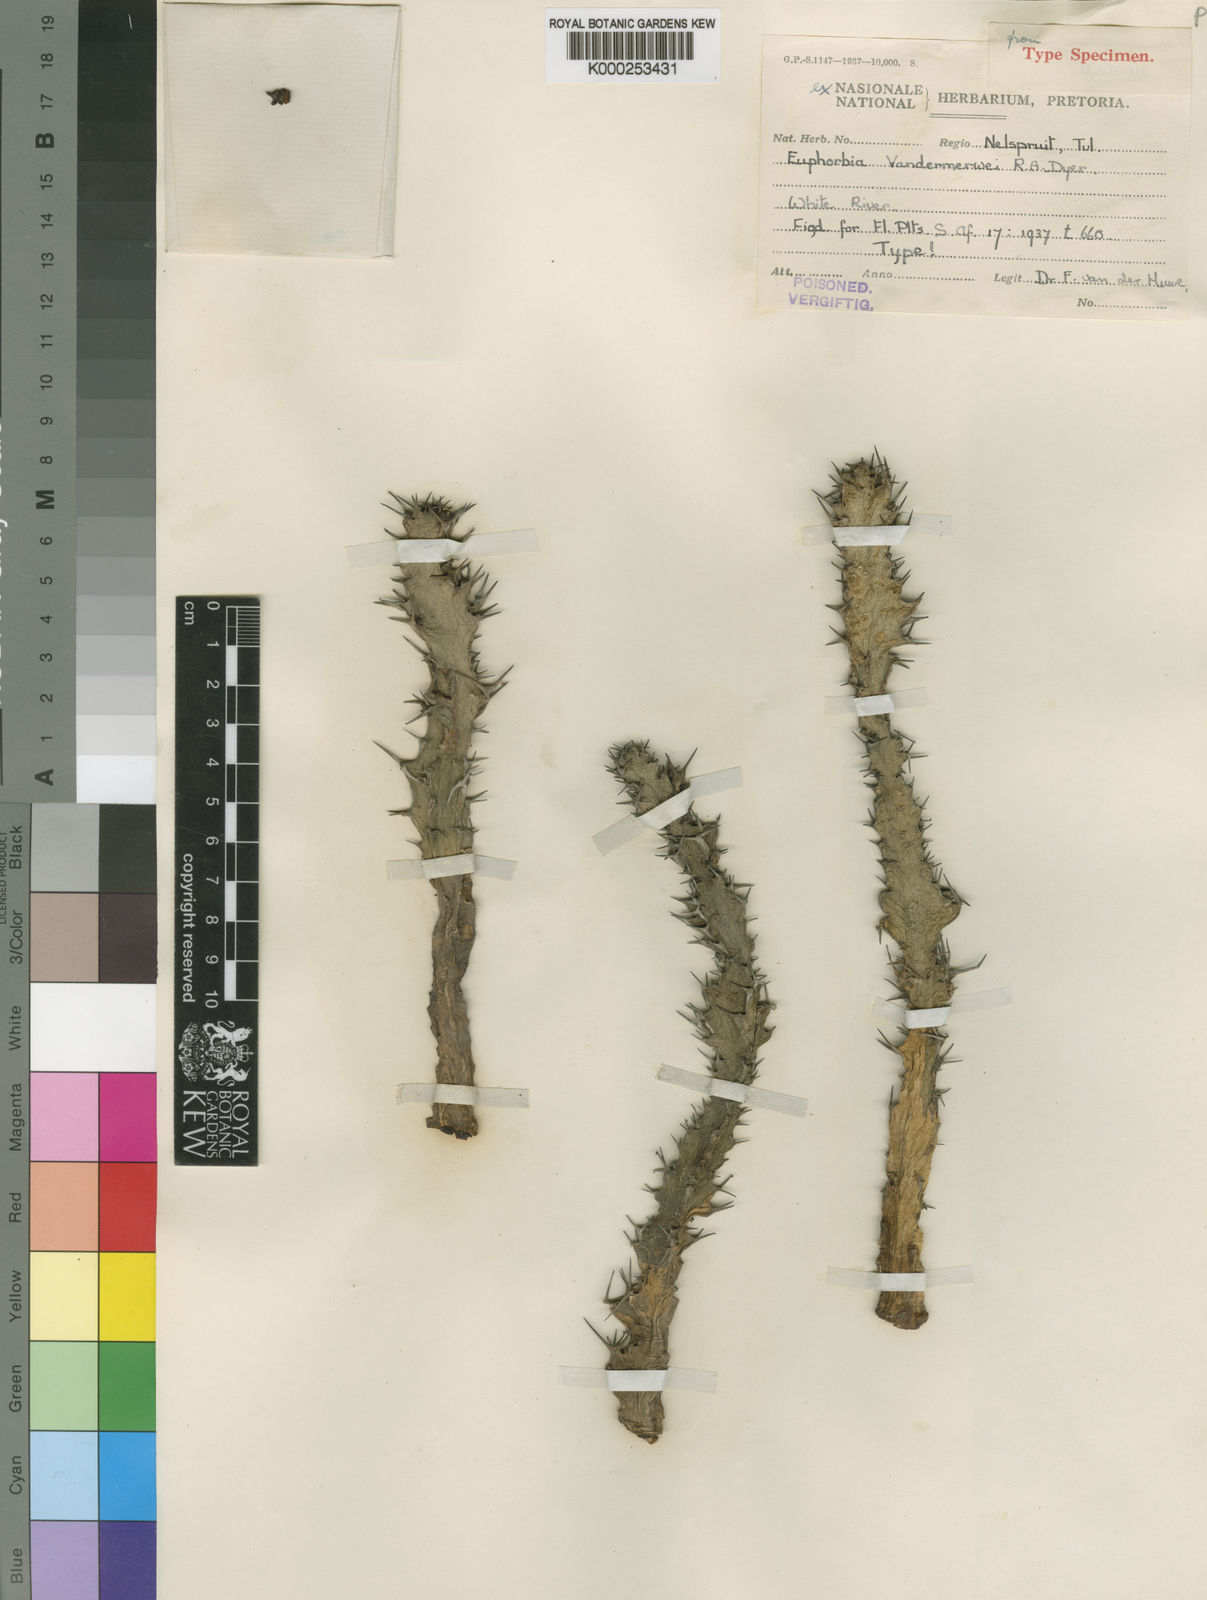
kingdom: Plantae
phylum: Tracheophyta
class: Magnoliopsida
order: Malpighiales
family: Euphorbiaceae
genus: Euphorbia
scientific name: Euphorbia vandermerwei
